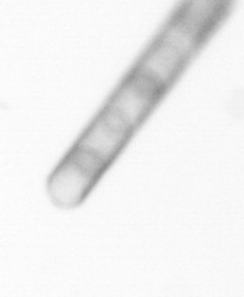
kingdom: Chromista
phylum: Ochrophyta
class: Bacillariophyceae
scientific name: Bacillariophyceae
